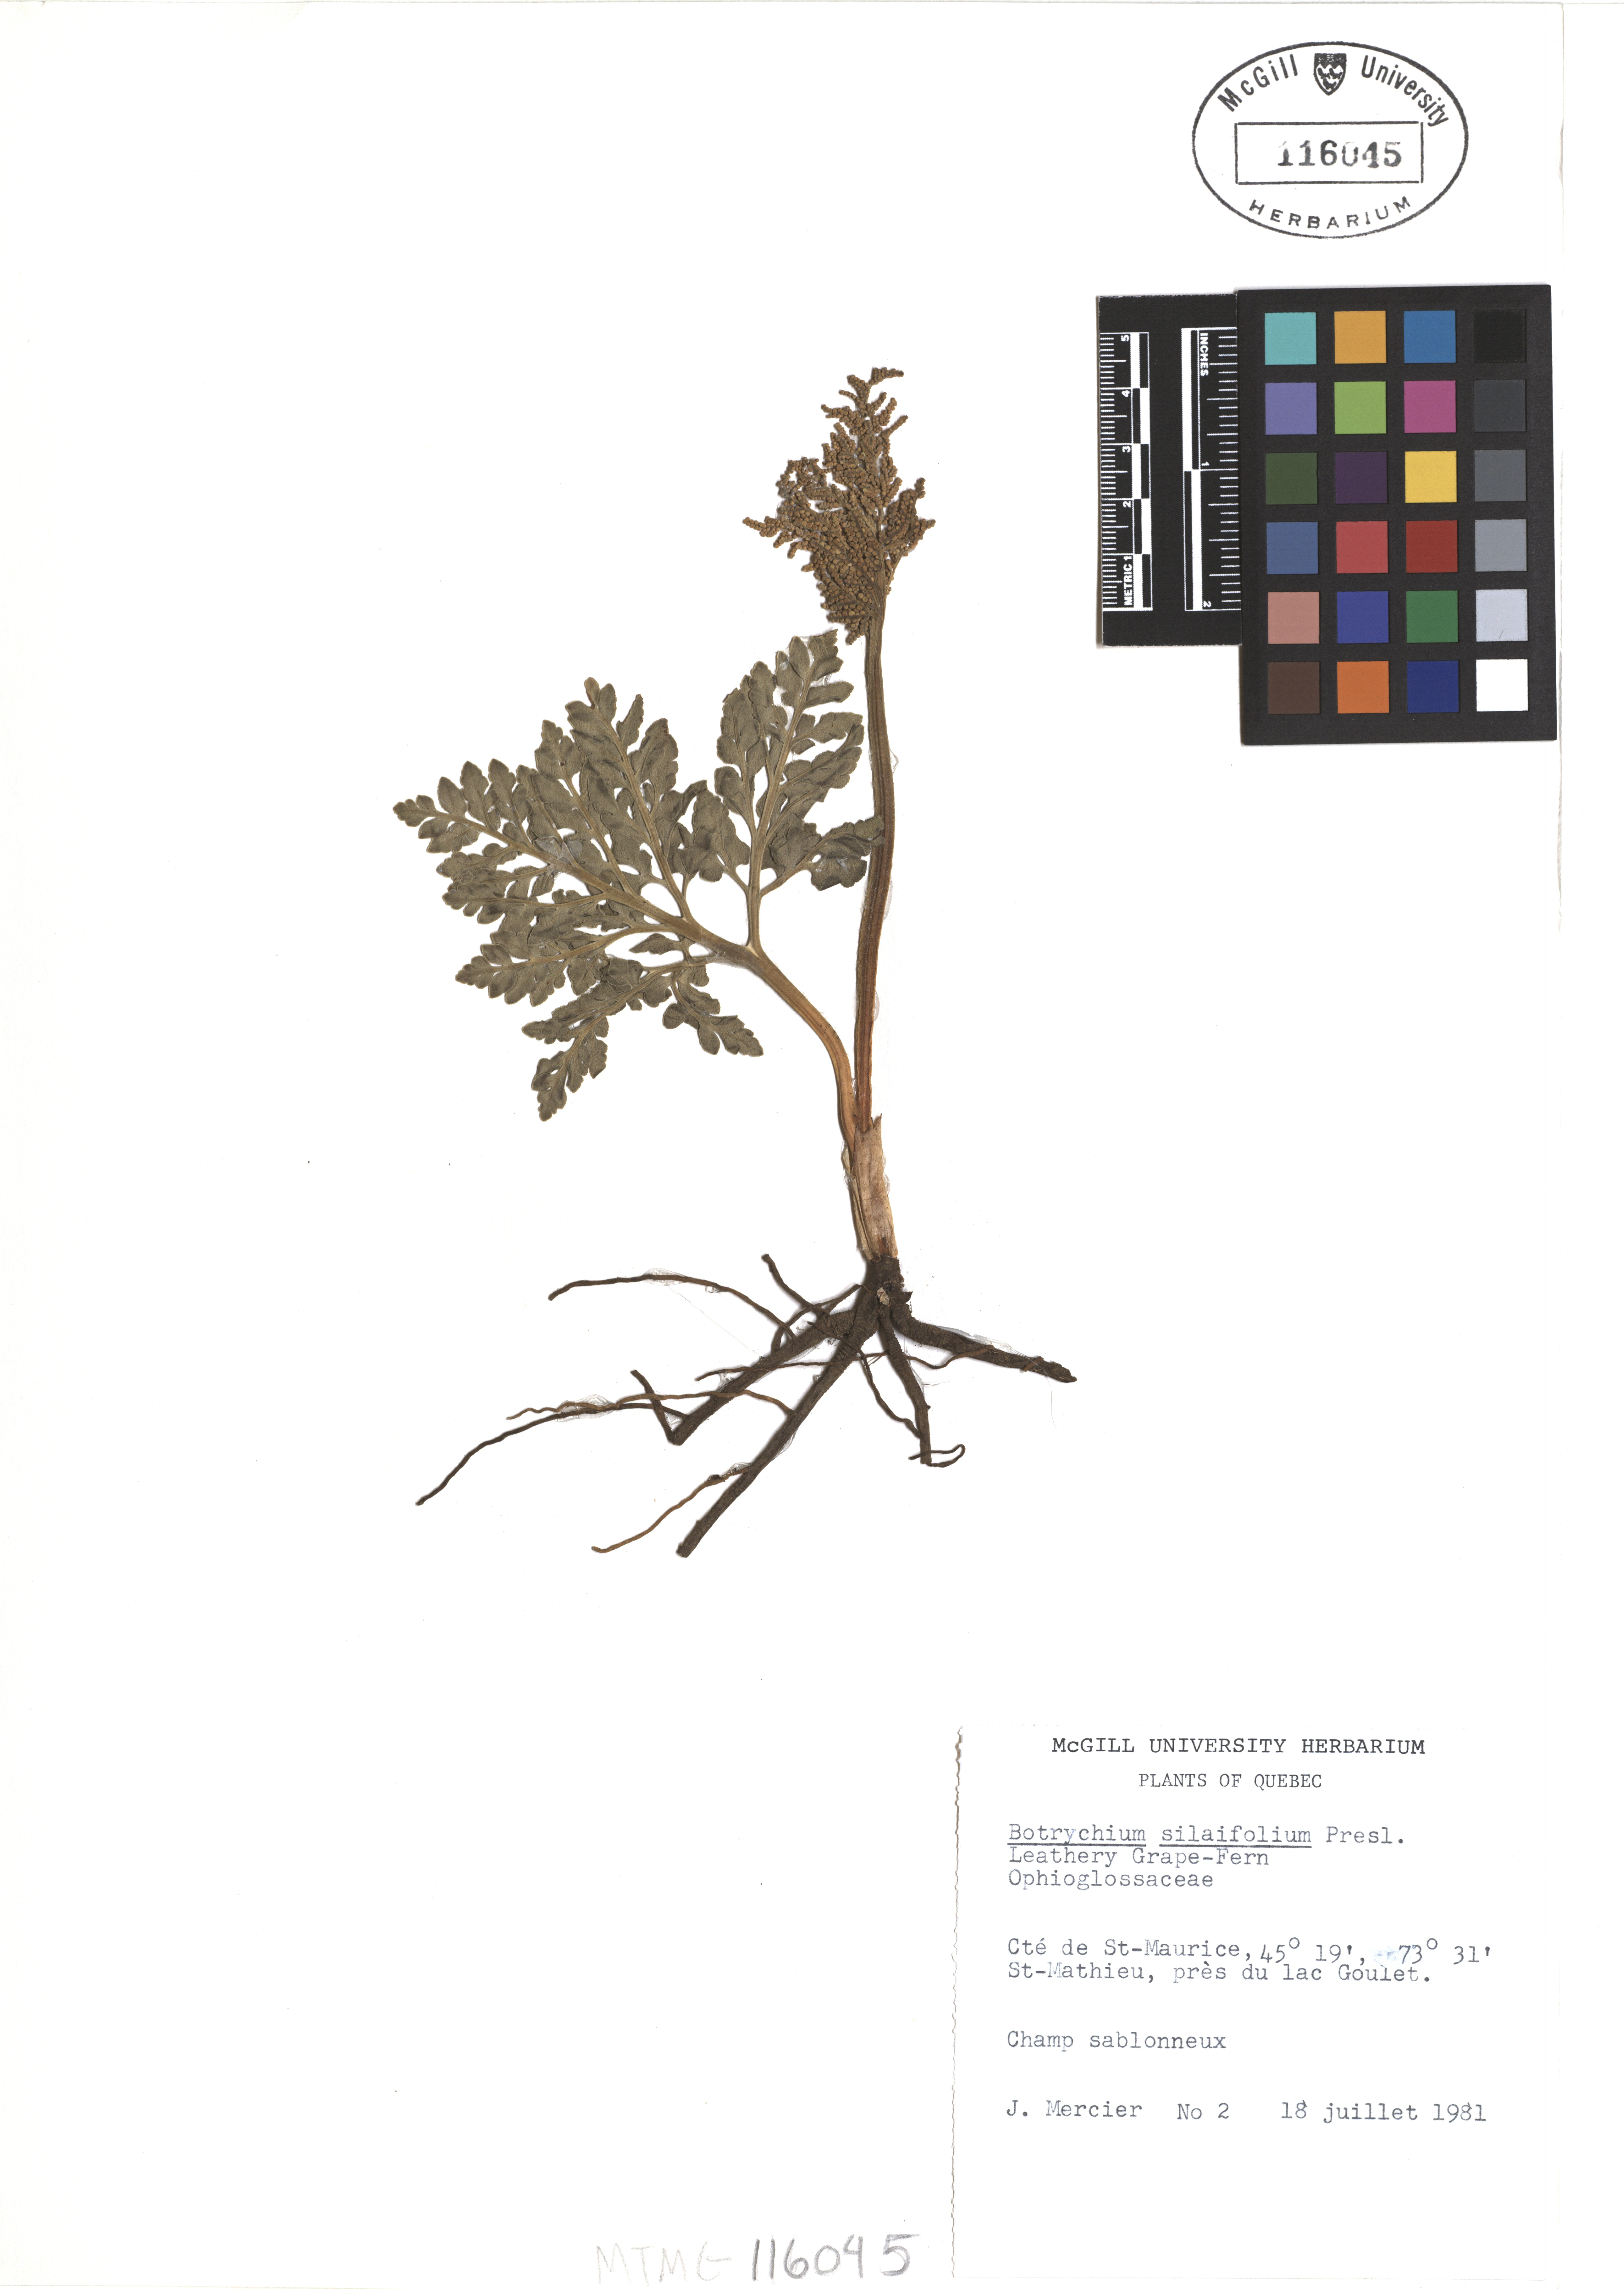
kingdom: Plantae
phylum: Tracheophyta
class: Polypodiopsida
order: Ophioglossales
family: Ophioglossaceae
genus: Sceptridium
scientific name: Sceptridium multifidum
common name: Leathery grape fern
